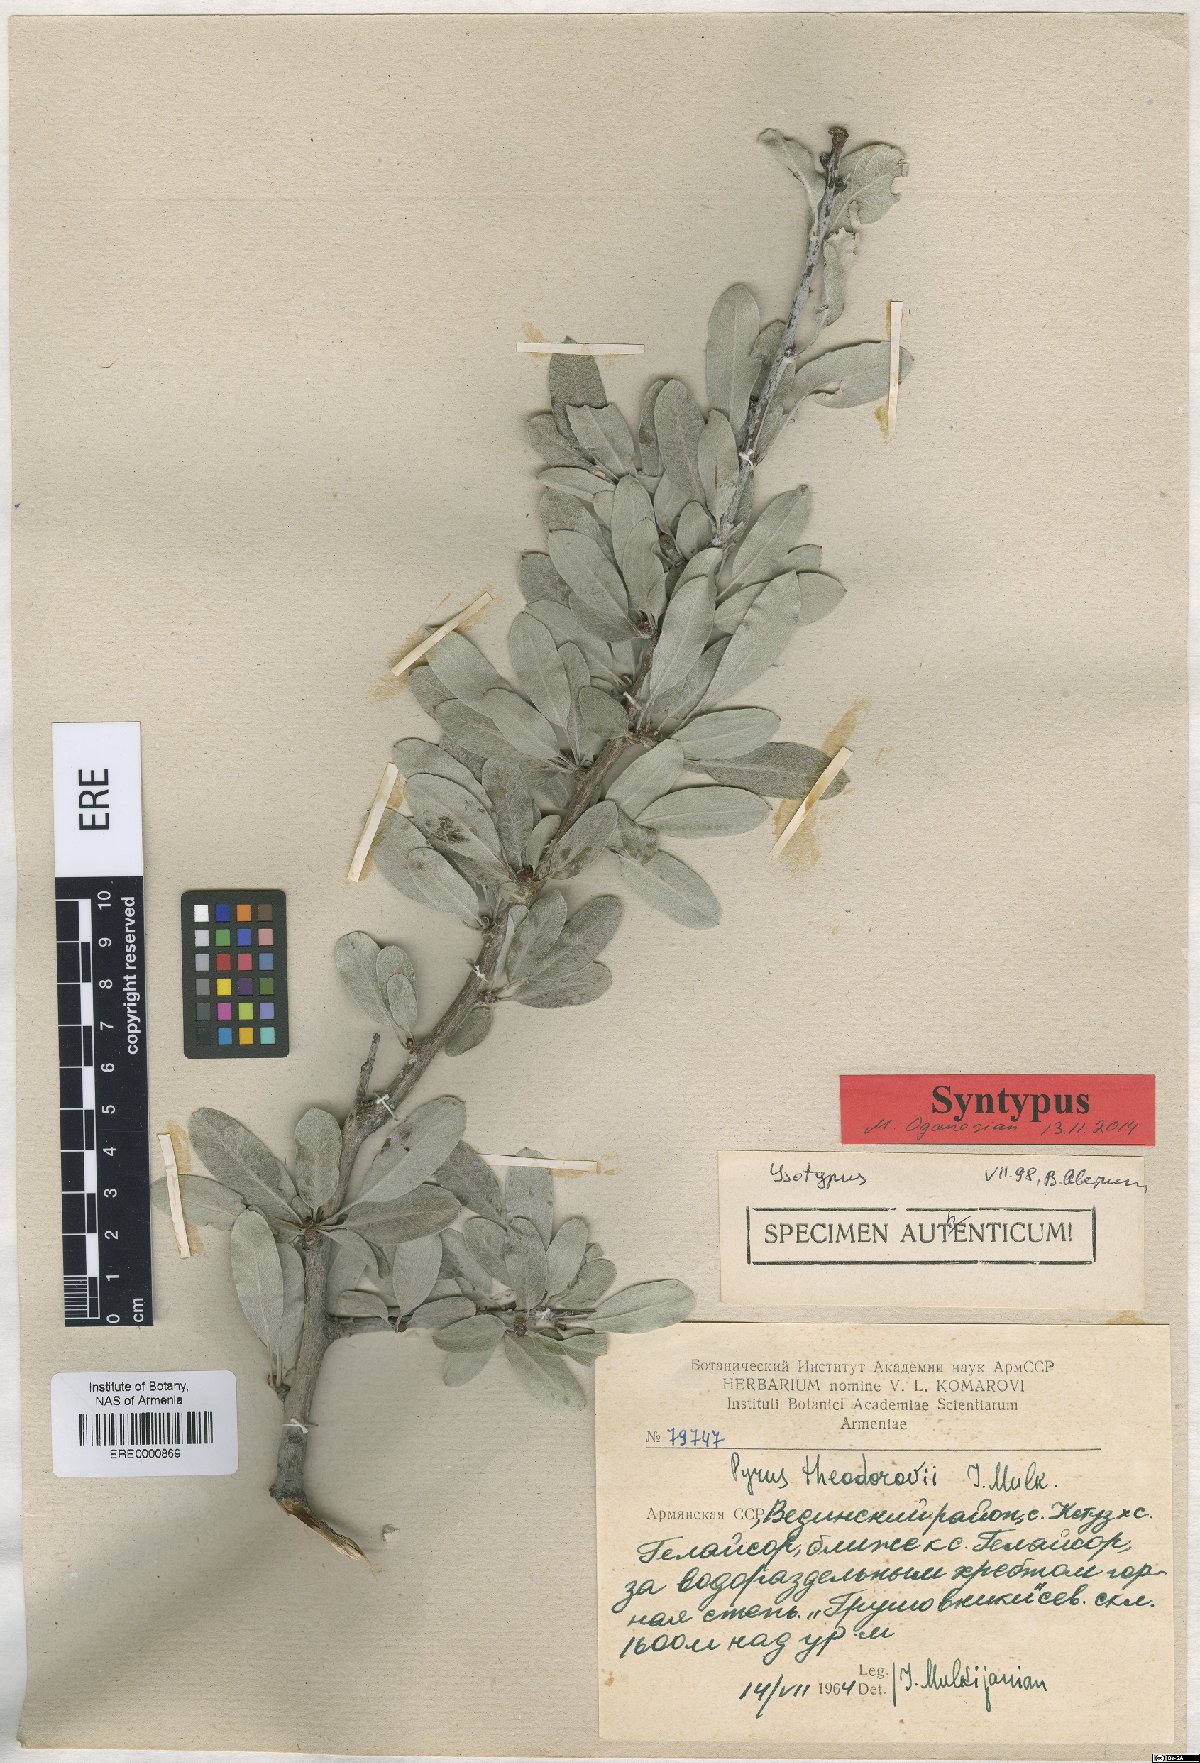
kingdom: Plantae
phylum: Tracheophyta
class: Magnoliopsida
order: Rosales
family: Rosaceae
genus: Pyrus
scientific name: Pyrus theodorovii
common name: Teodorov's pear
